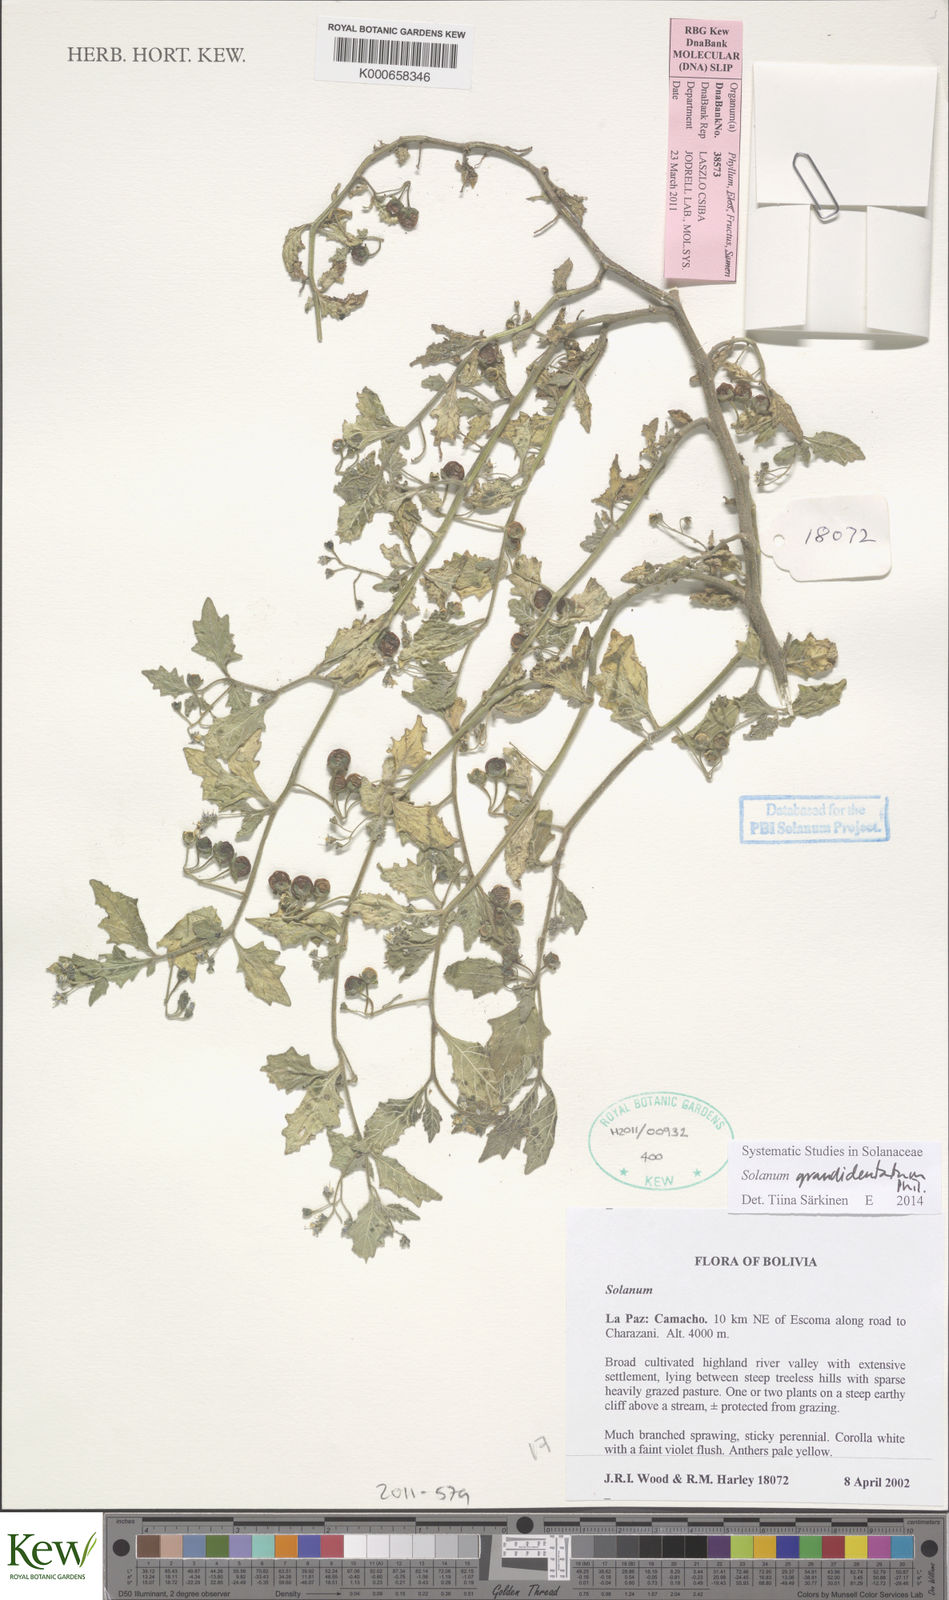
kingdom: Plantae
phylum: Tracheophyta
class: Magnoliopsida
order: Solanales
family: Solanaceae
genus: Solanum
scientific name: Solanum grandidentatum
